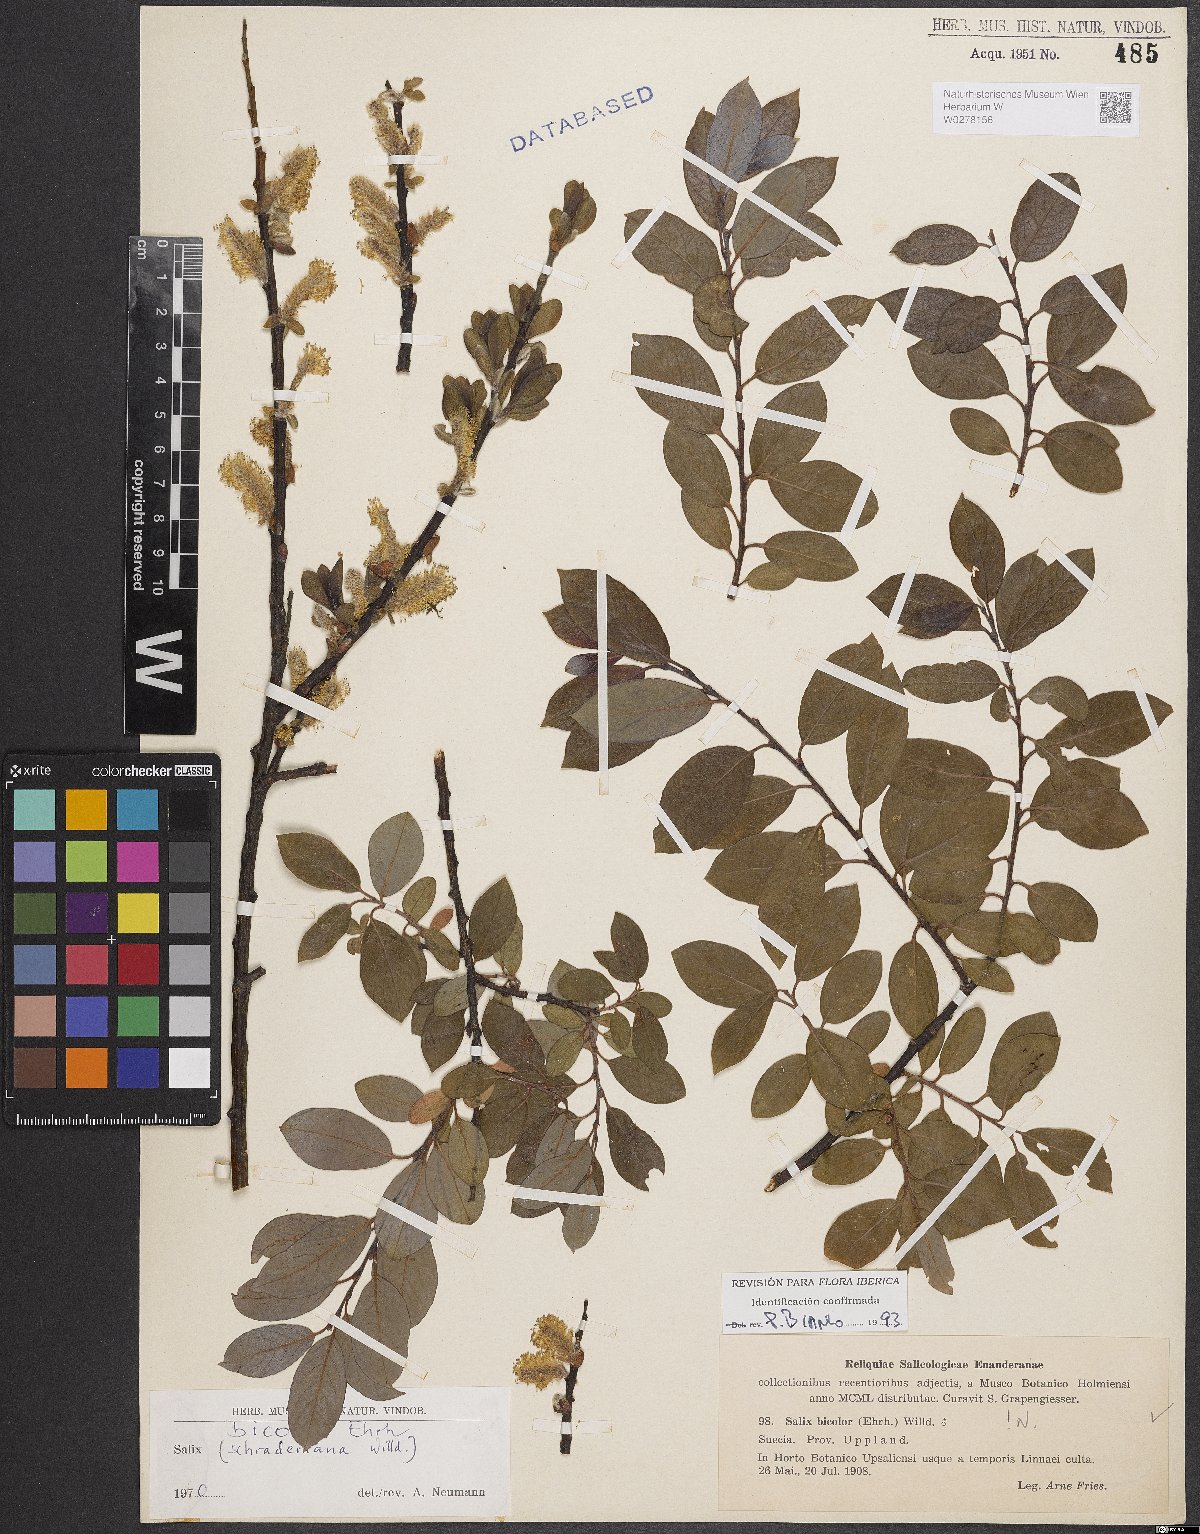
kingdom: Plantae
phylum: Tracheophyta
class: Magnoliopsida
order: Malpighiales
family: Salicaceae
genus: Salix
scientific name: Salix bicolor
